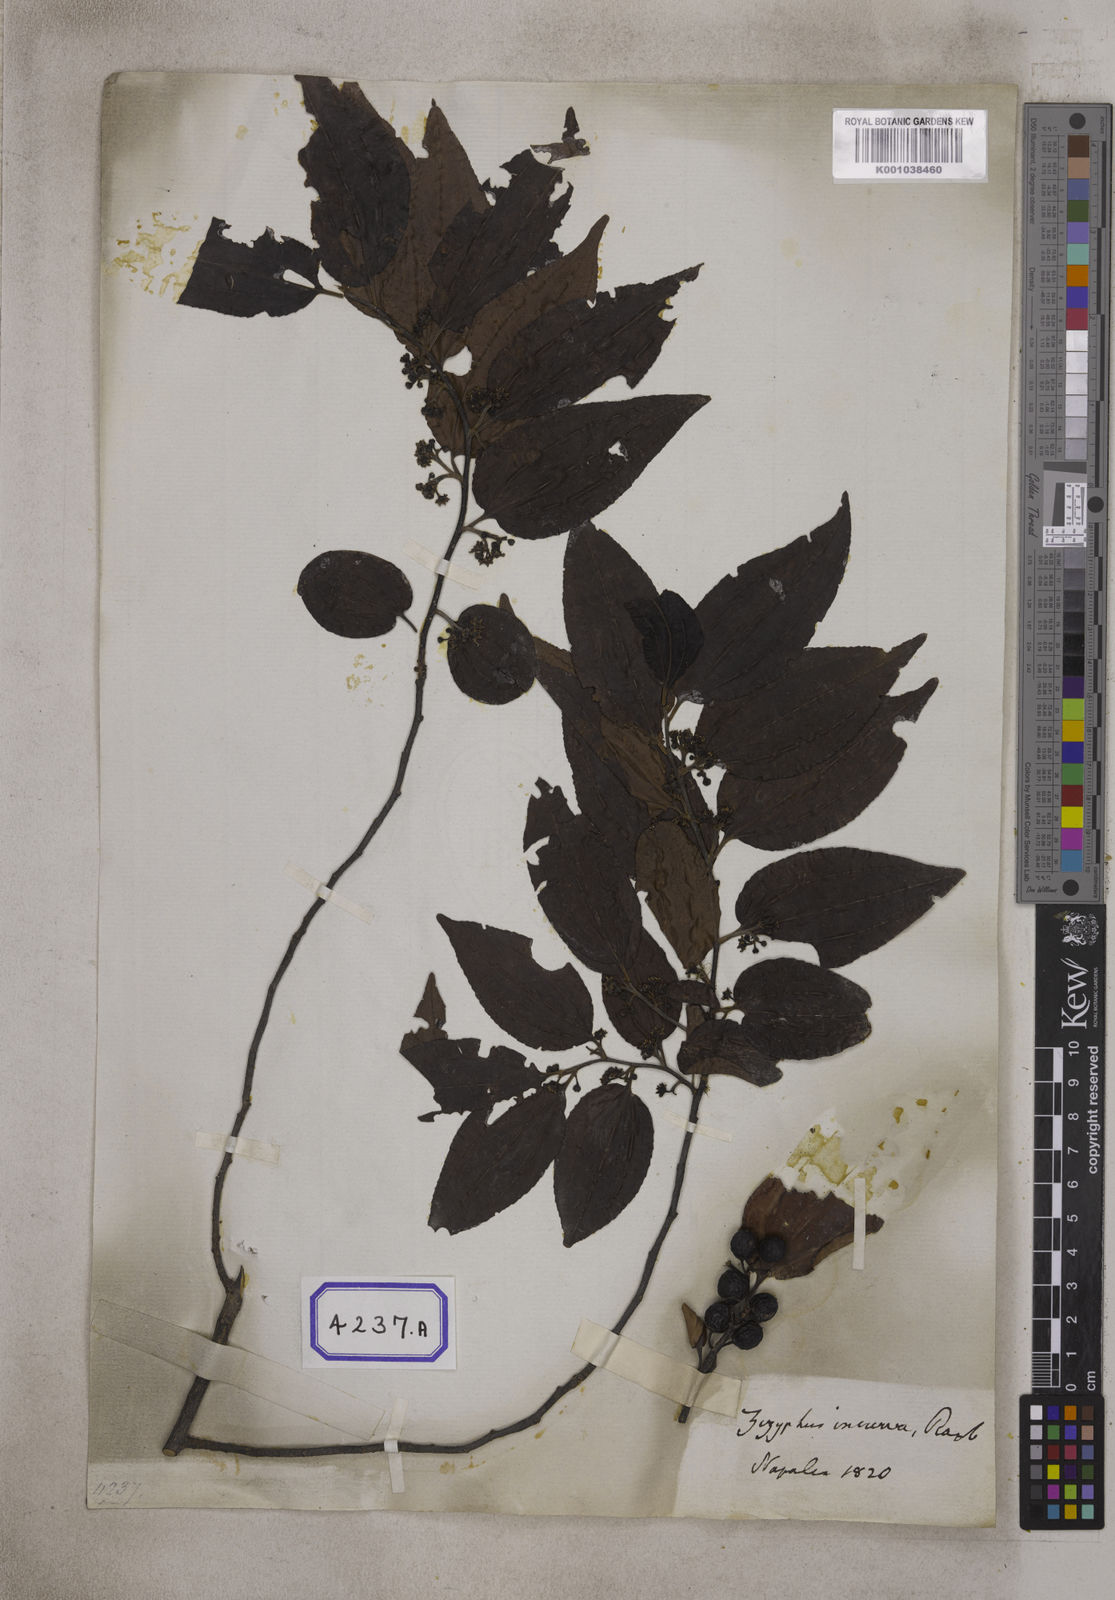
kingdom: Plantae
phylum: Tracheophyta
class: Magnoliopsida
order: Rosales
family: Rhamnaceae
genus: Ziziphus
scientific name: Ziziphus incurva
